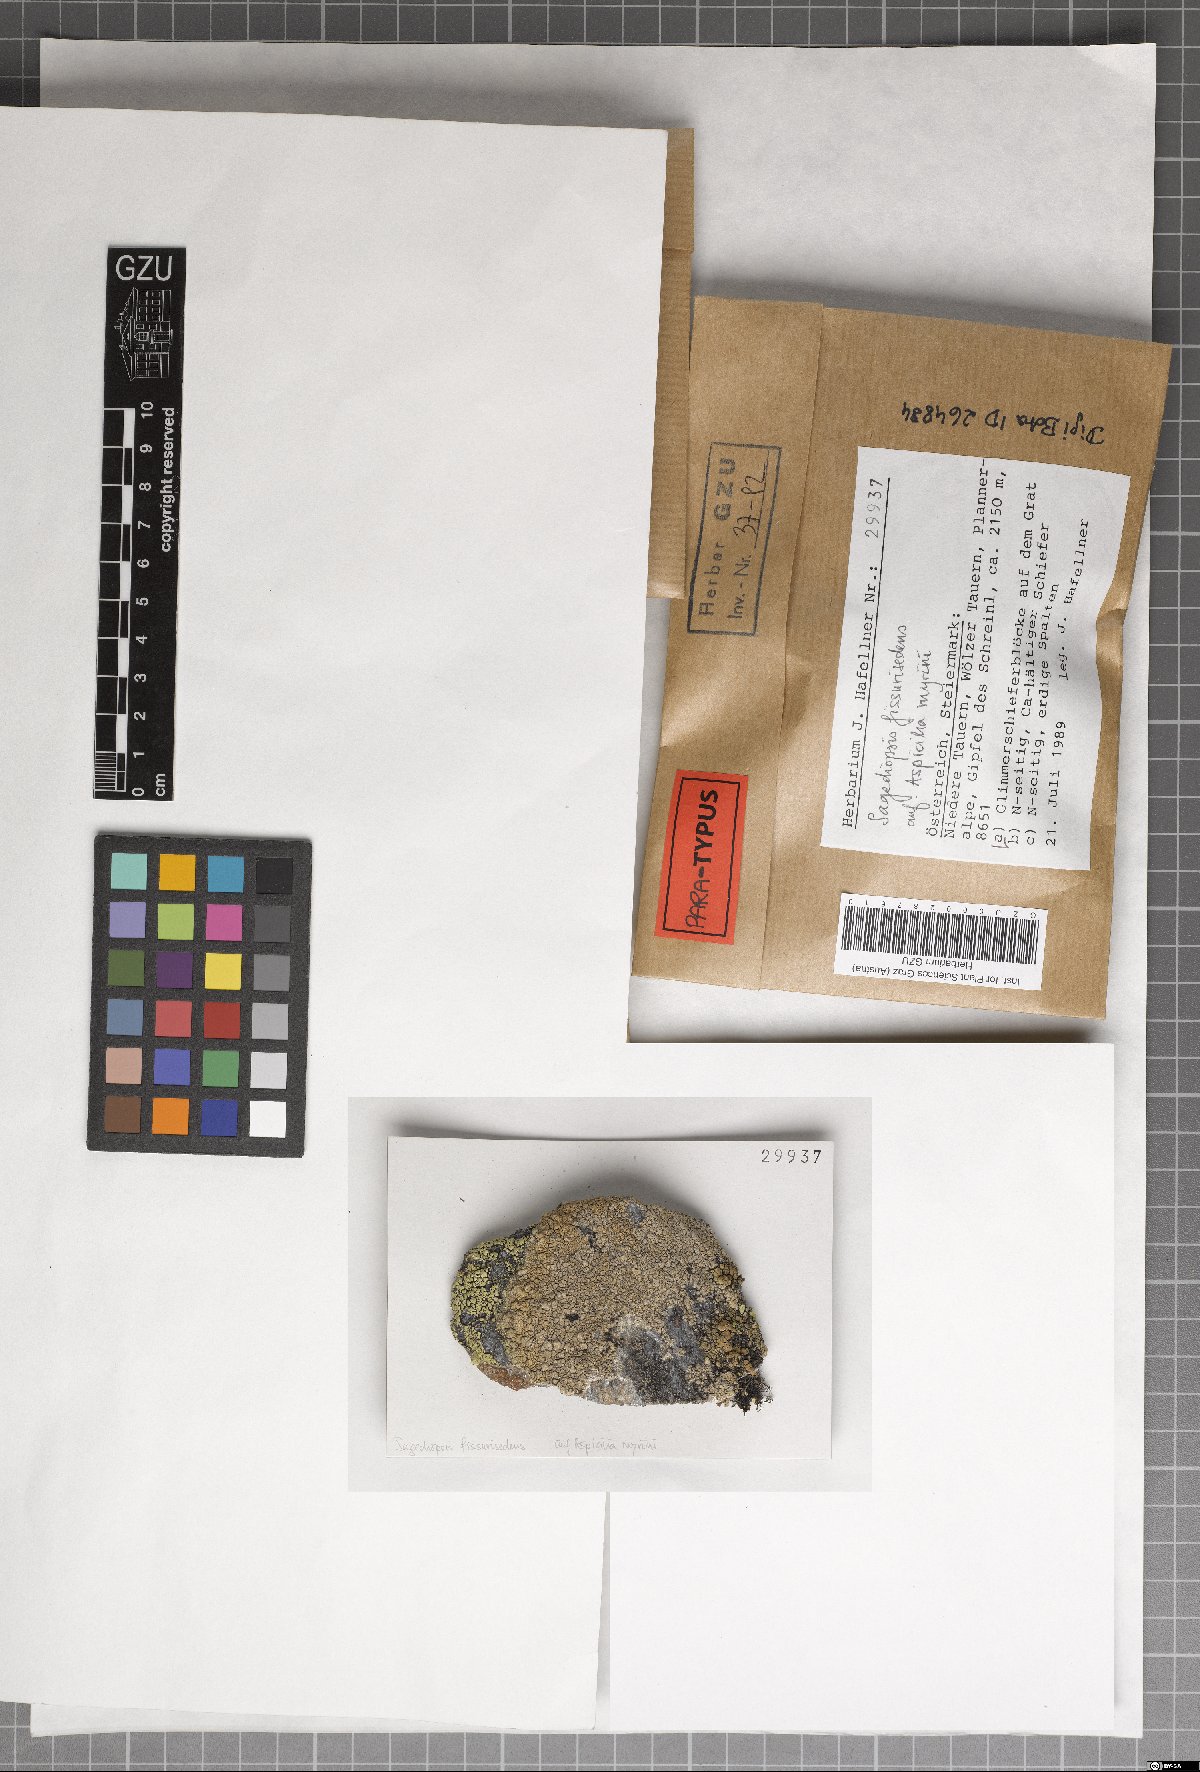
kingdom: Fungi
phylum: Ascomycota
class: Eurotiomycetes
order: Verrucariales
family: Adelococcaceae
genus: Sagediopsis
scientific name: Sagediopsis fissurisedens
